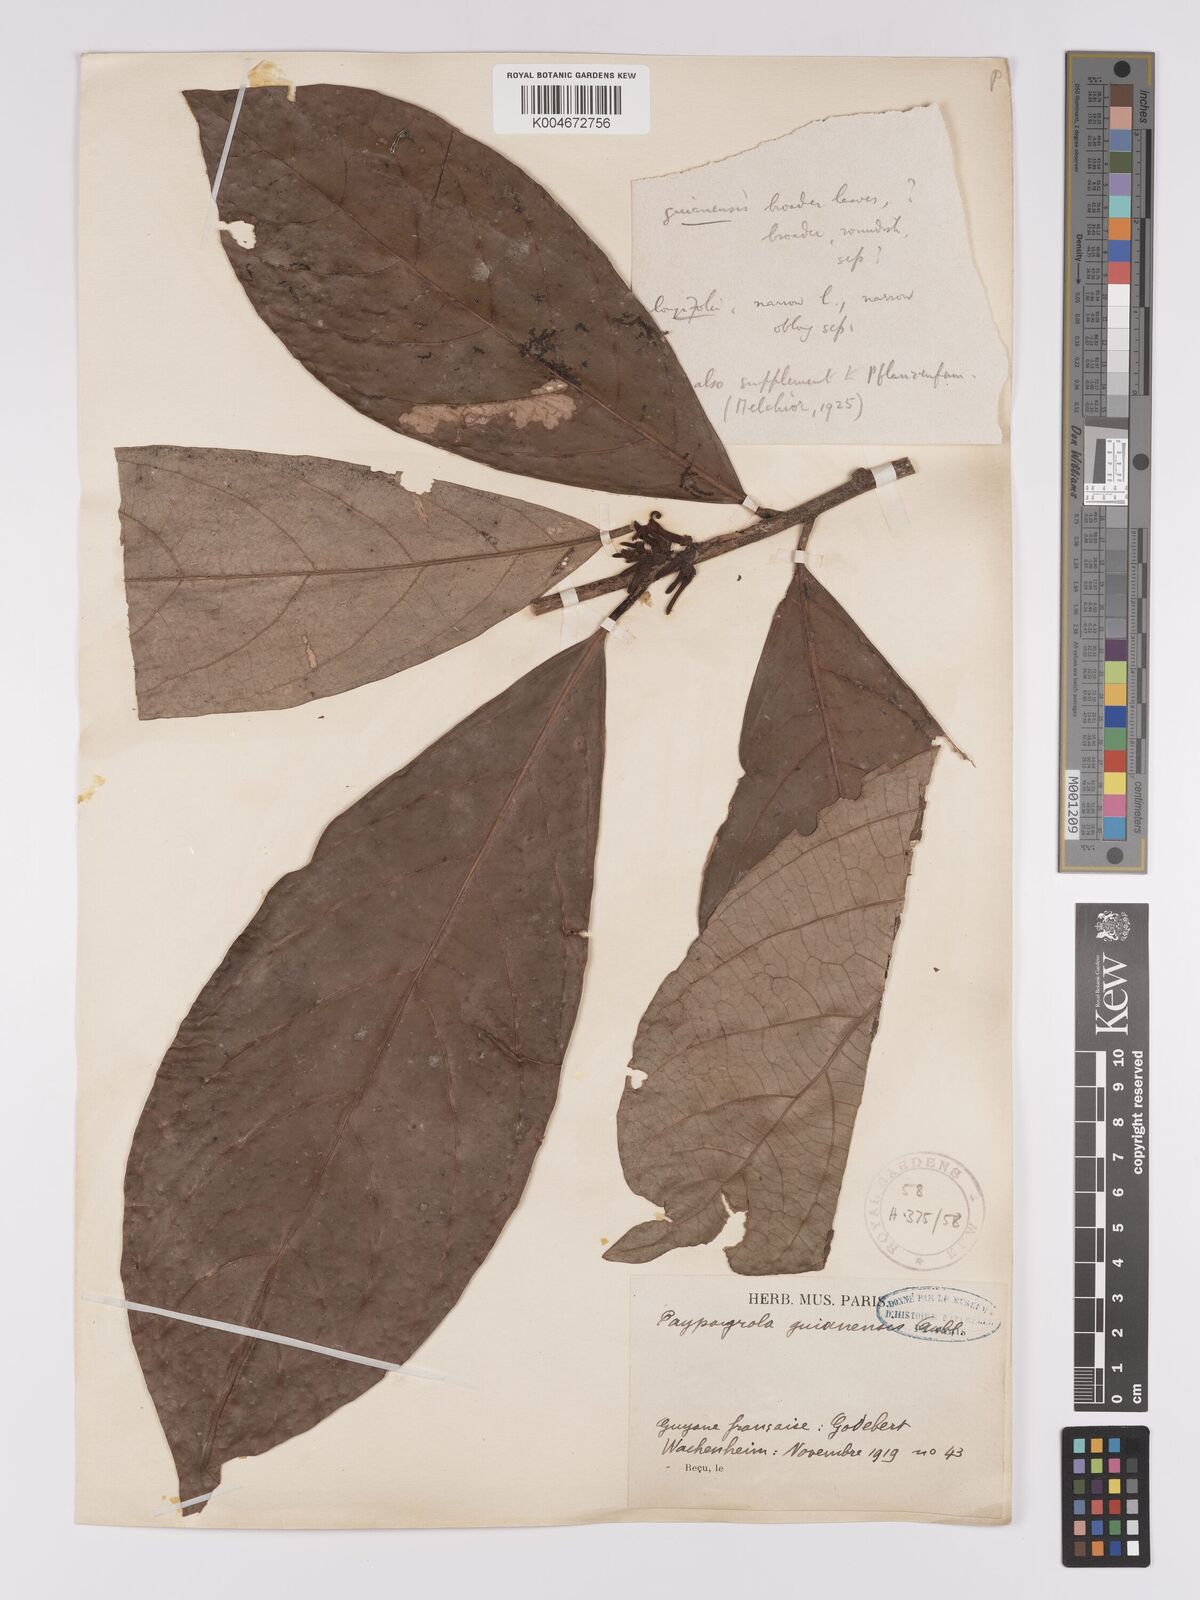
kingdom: Plantae
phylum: Tracheophyta
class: Magnoliopsida
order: Malpighiales
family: Violaceae
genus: Paypayrola
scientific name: Paypayrola guianensis
